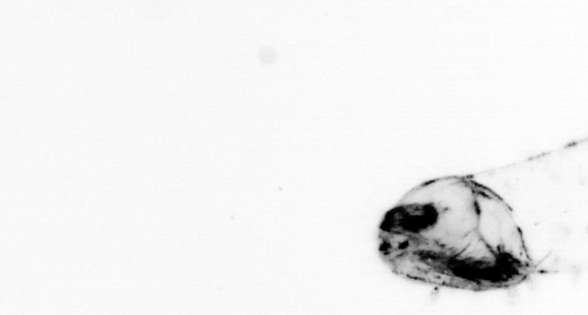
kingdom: Animalia
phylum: Chaetognatha
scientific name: Chaetognatha
